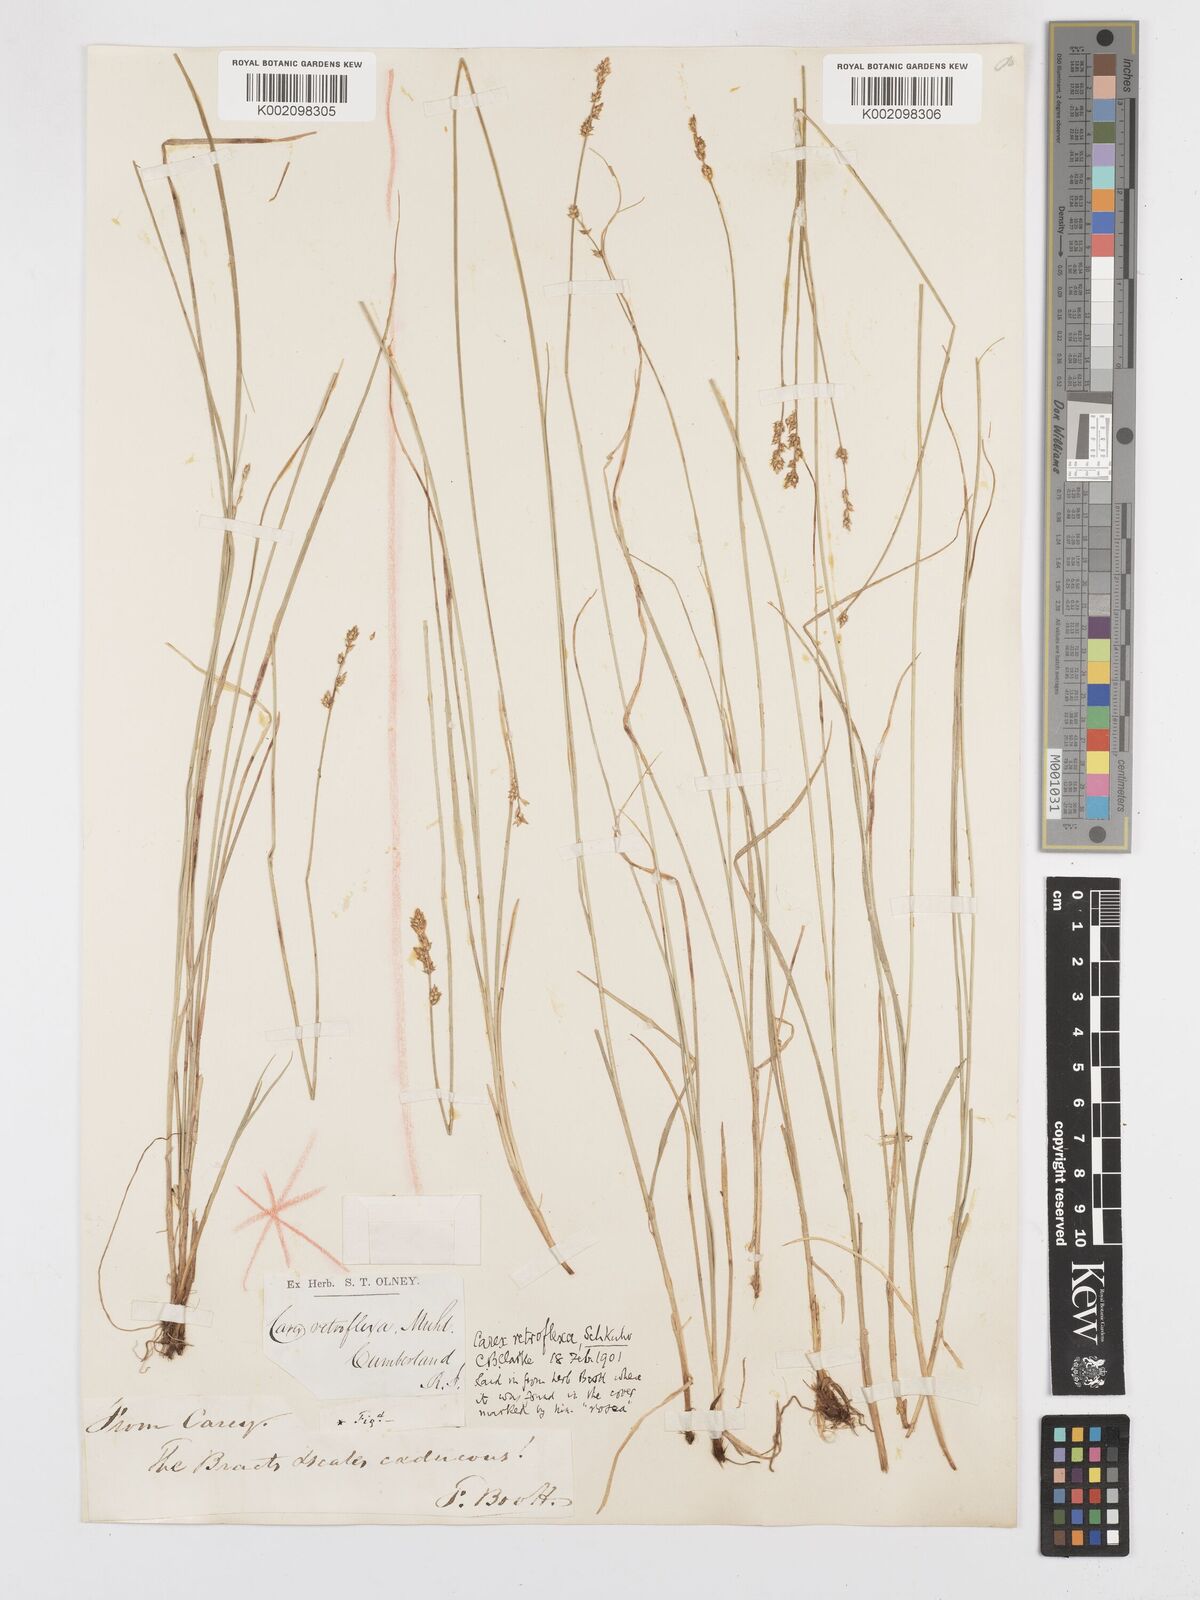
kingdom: Plantae
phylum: Tracheophyta
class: Liliopsida
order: Poales
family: Cyperaceae
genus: Carex
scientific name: Carex retroflexa
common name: Reflexed sedge
